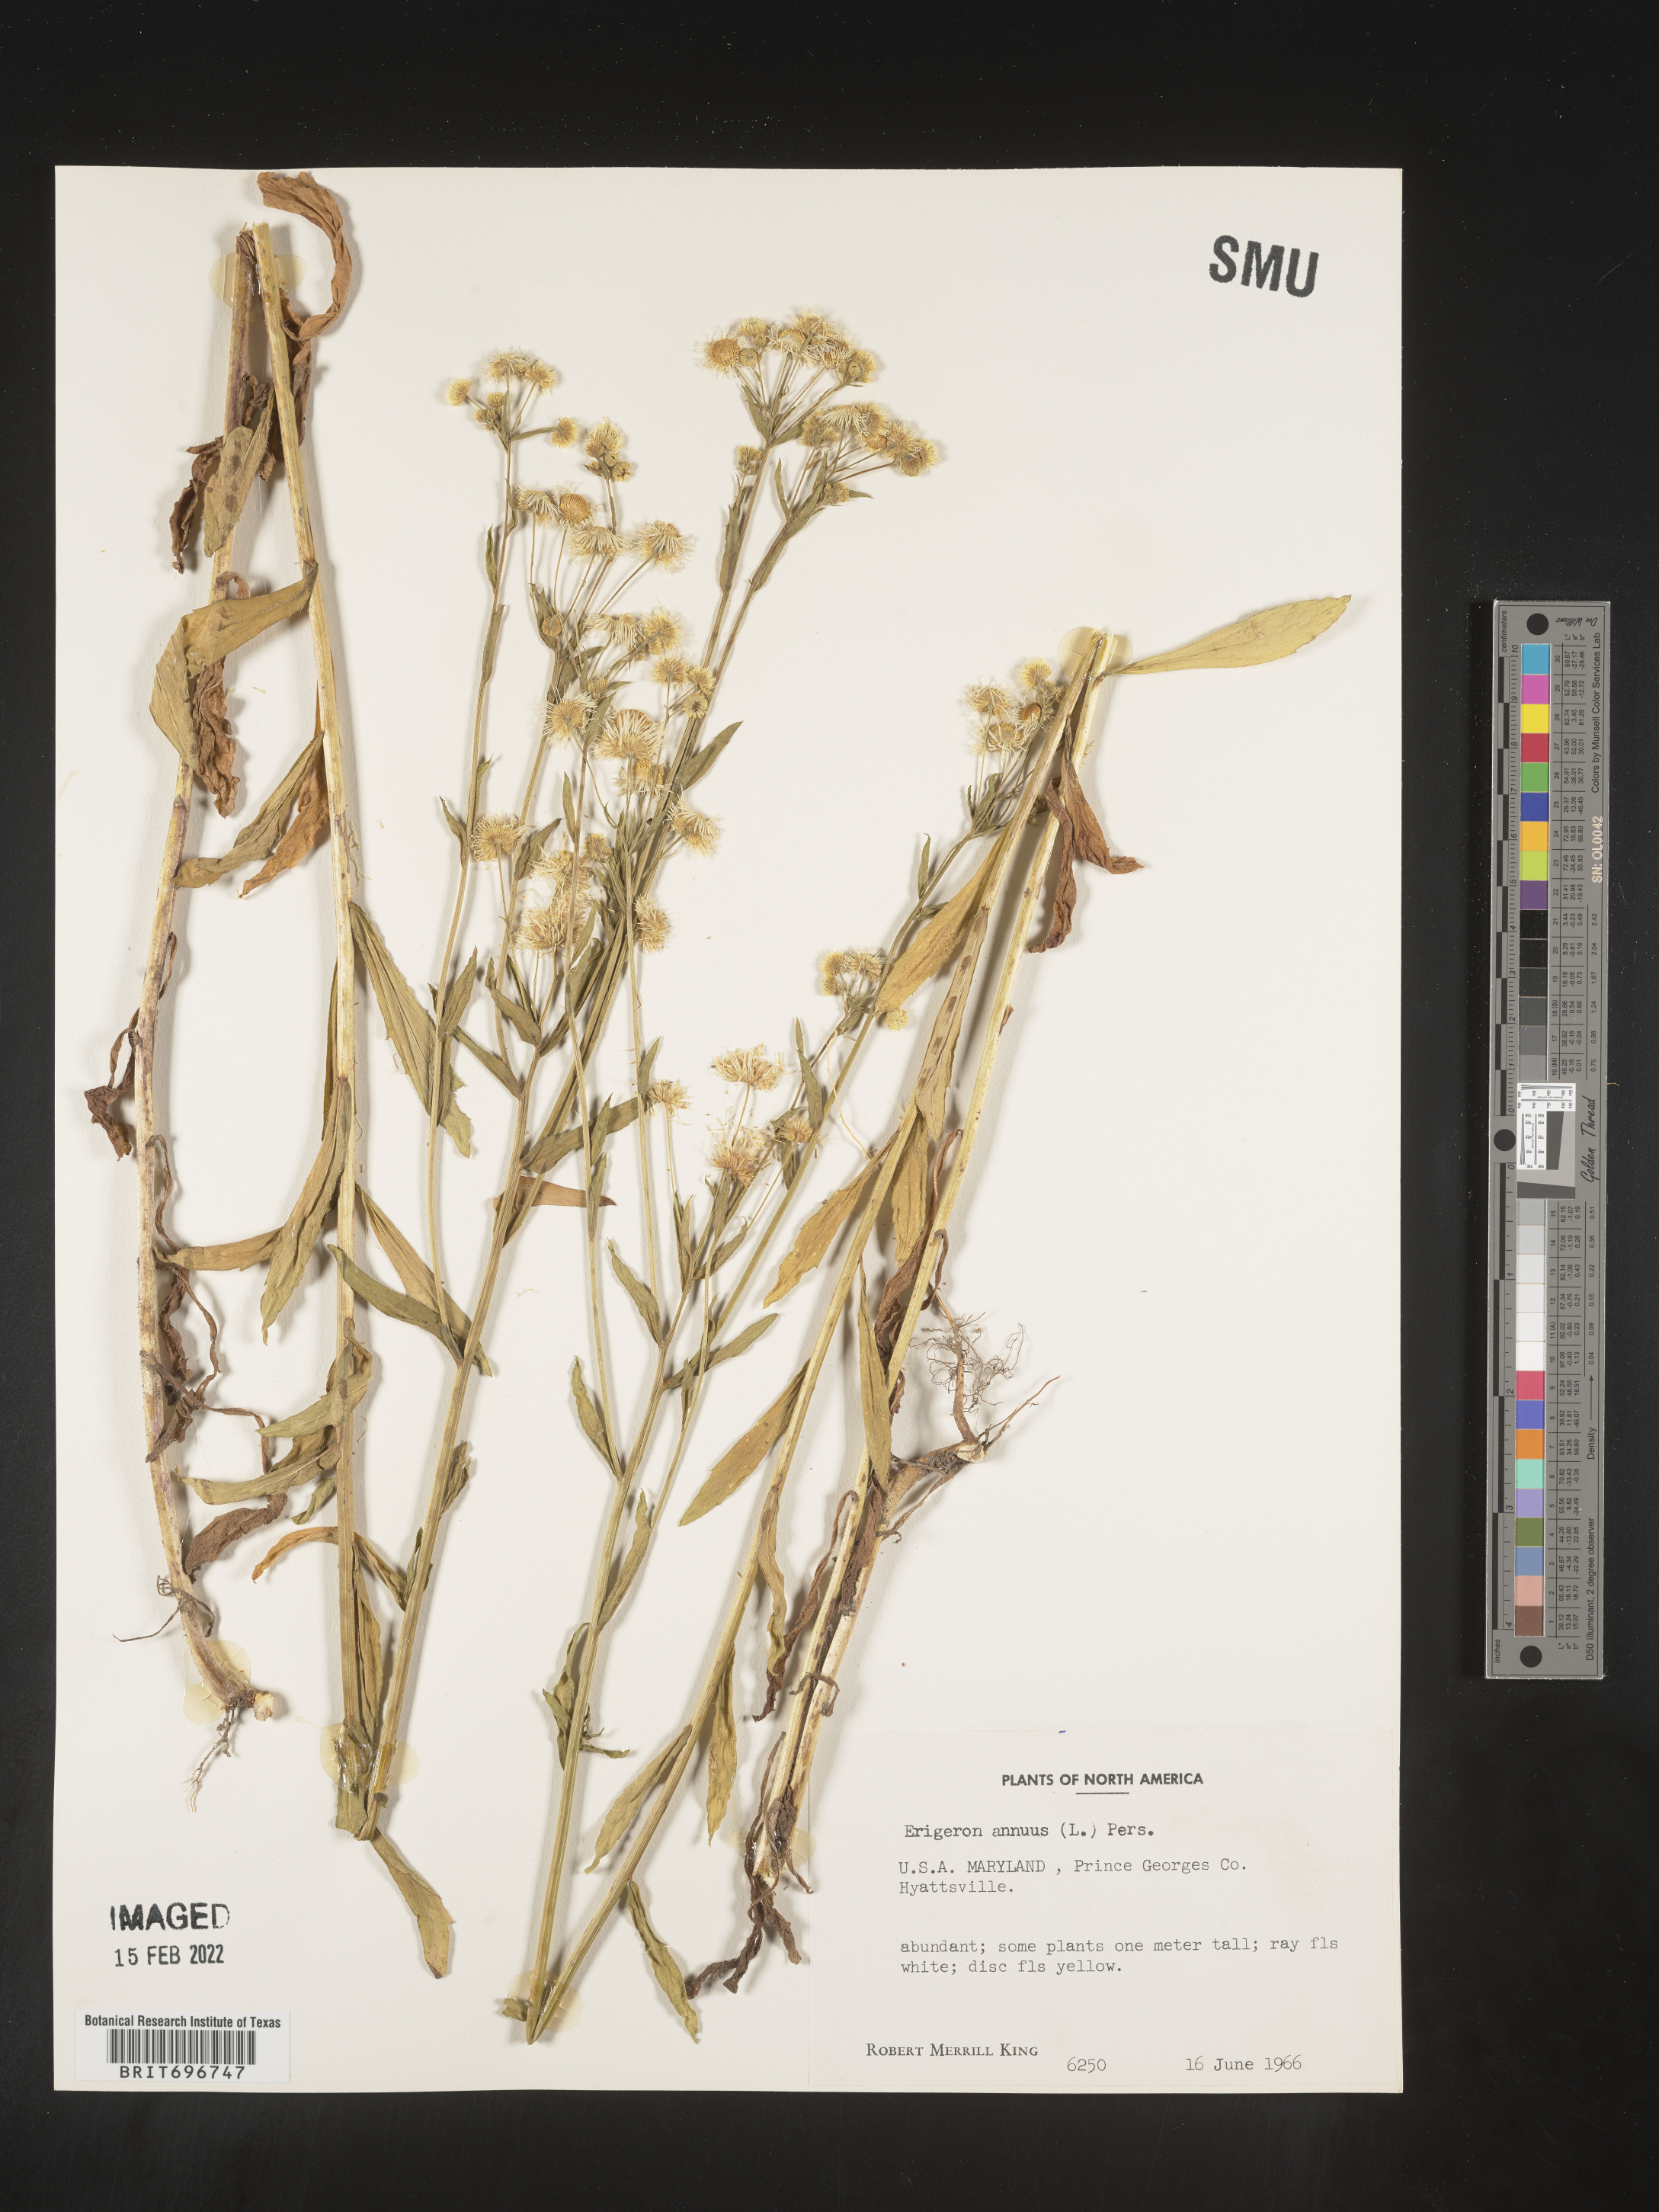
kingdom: Plantae
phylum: Tracheophyta
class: Magnoliopsida
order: Asterales
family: Asteraceae
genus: Erigeron
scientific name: Erigeron annuus
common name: Tall fleabane
